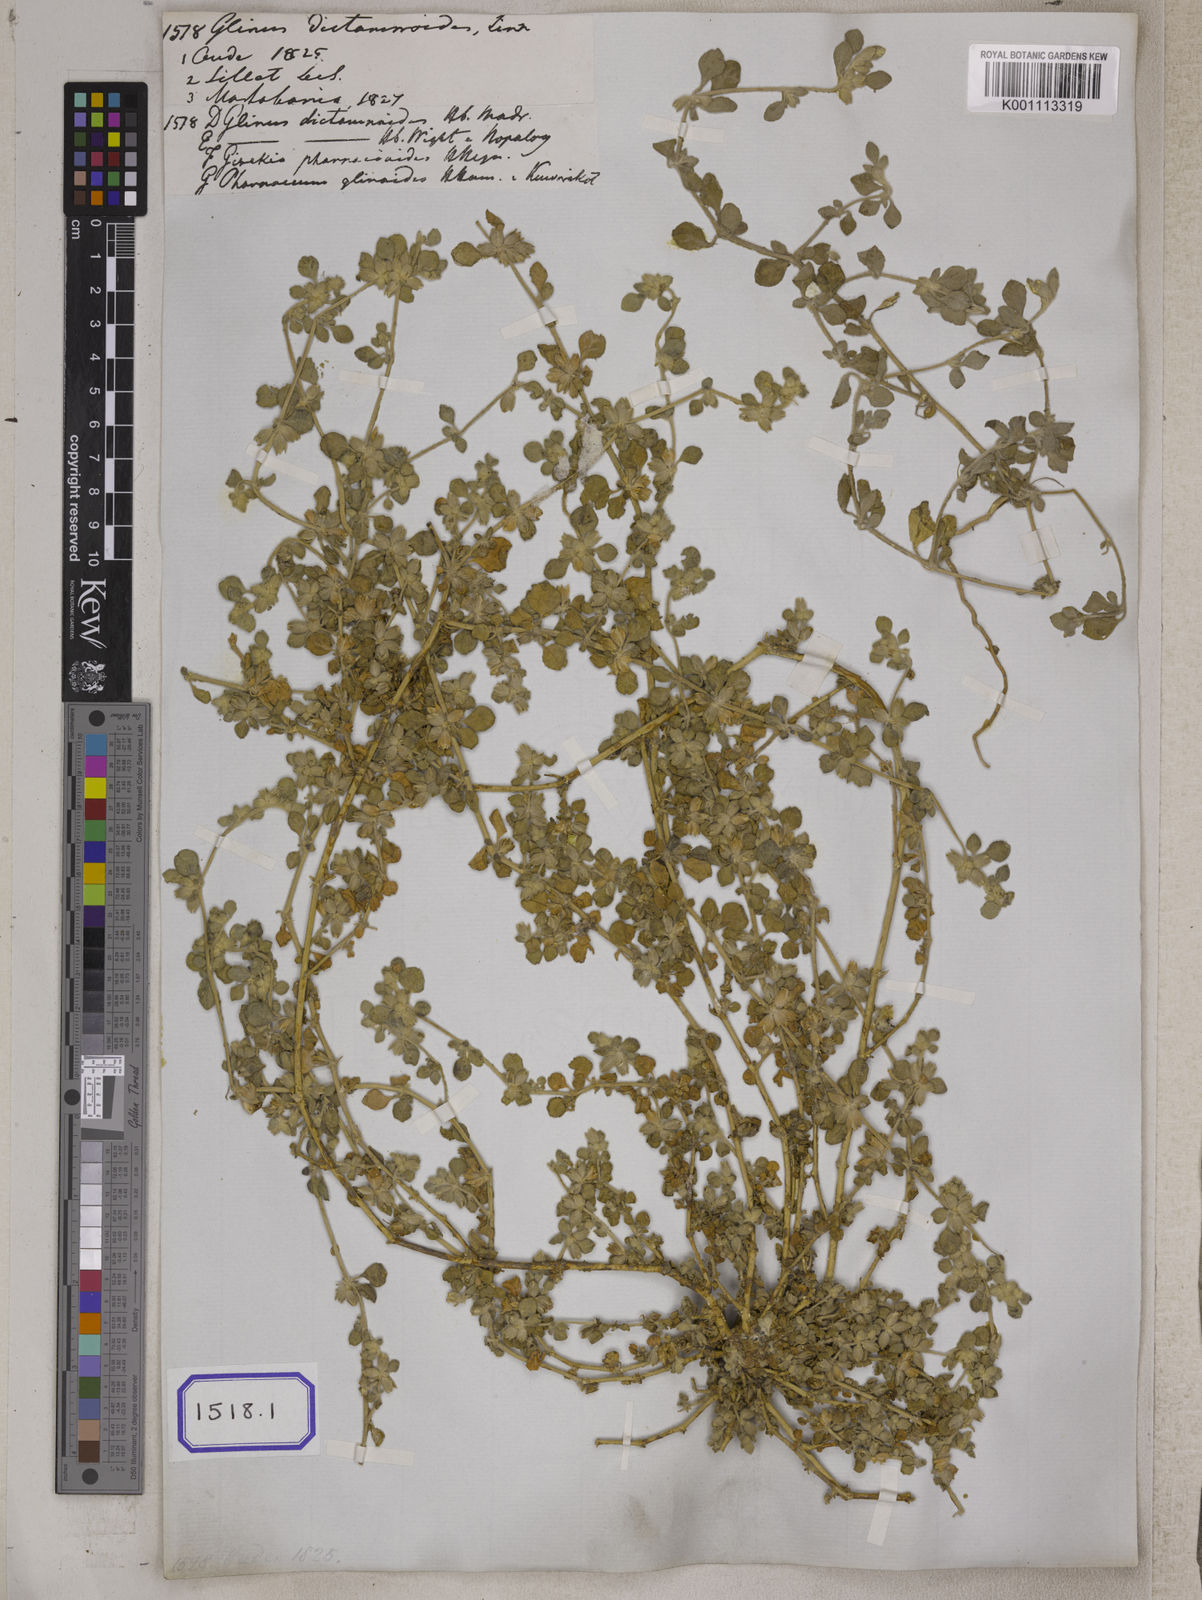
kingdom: Plantae
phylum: Tracheophyta
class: Magnoliopsida
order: Caryophyllales
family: Molluginaceae
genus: Glinus
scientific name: Glinus
